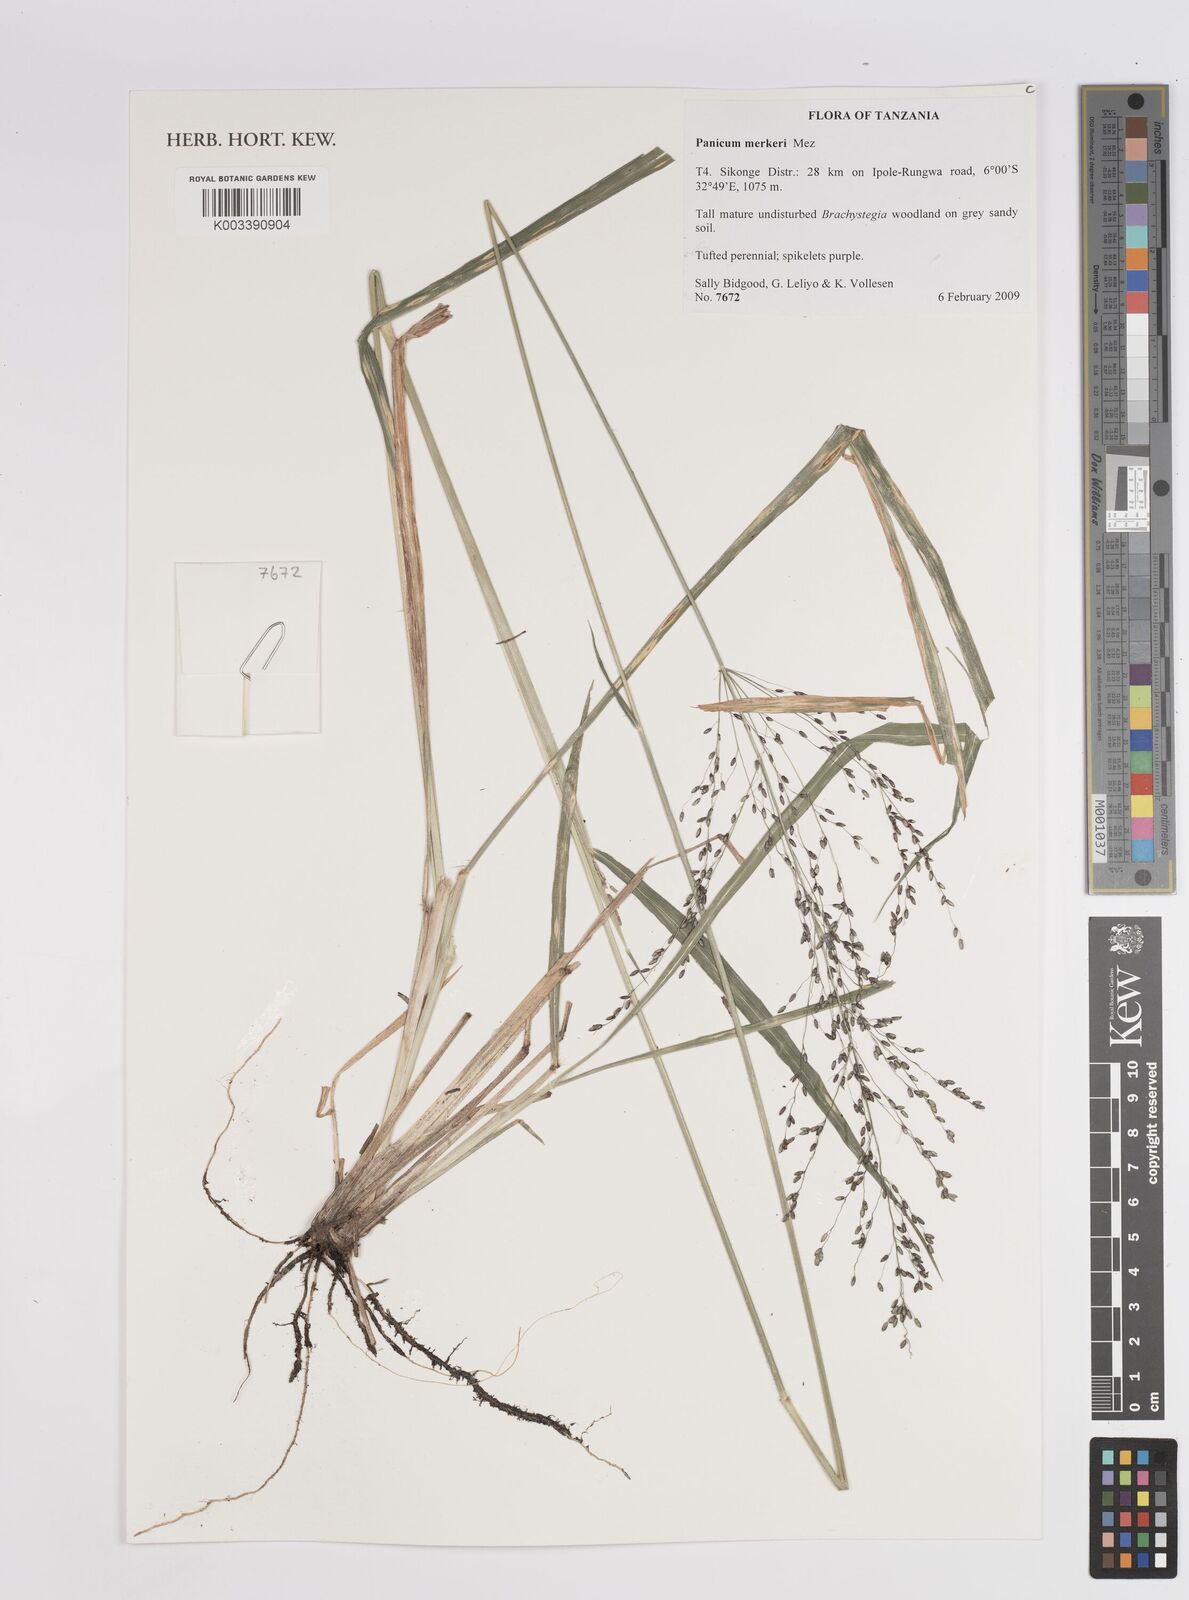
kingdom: Plantae
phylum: Tracheophyta
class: Liliopsida
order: Poales
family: Poaceae
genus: Panicum
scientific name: Panicum merkeri
